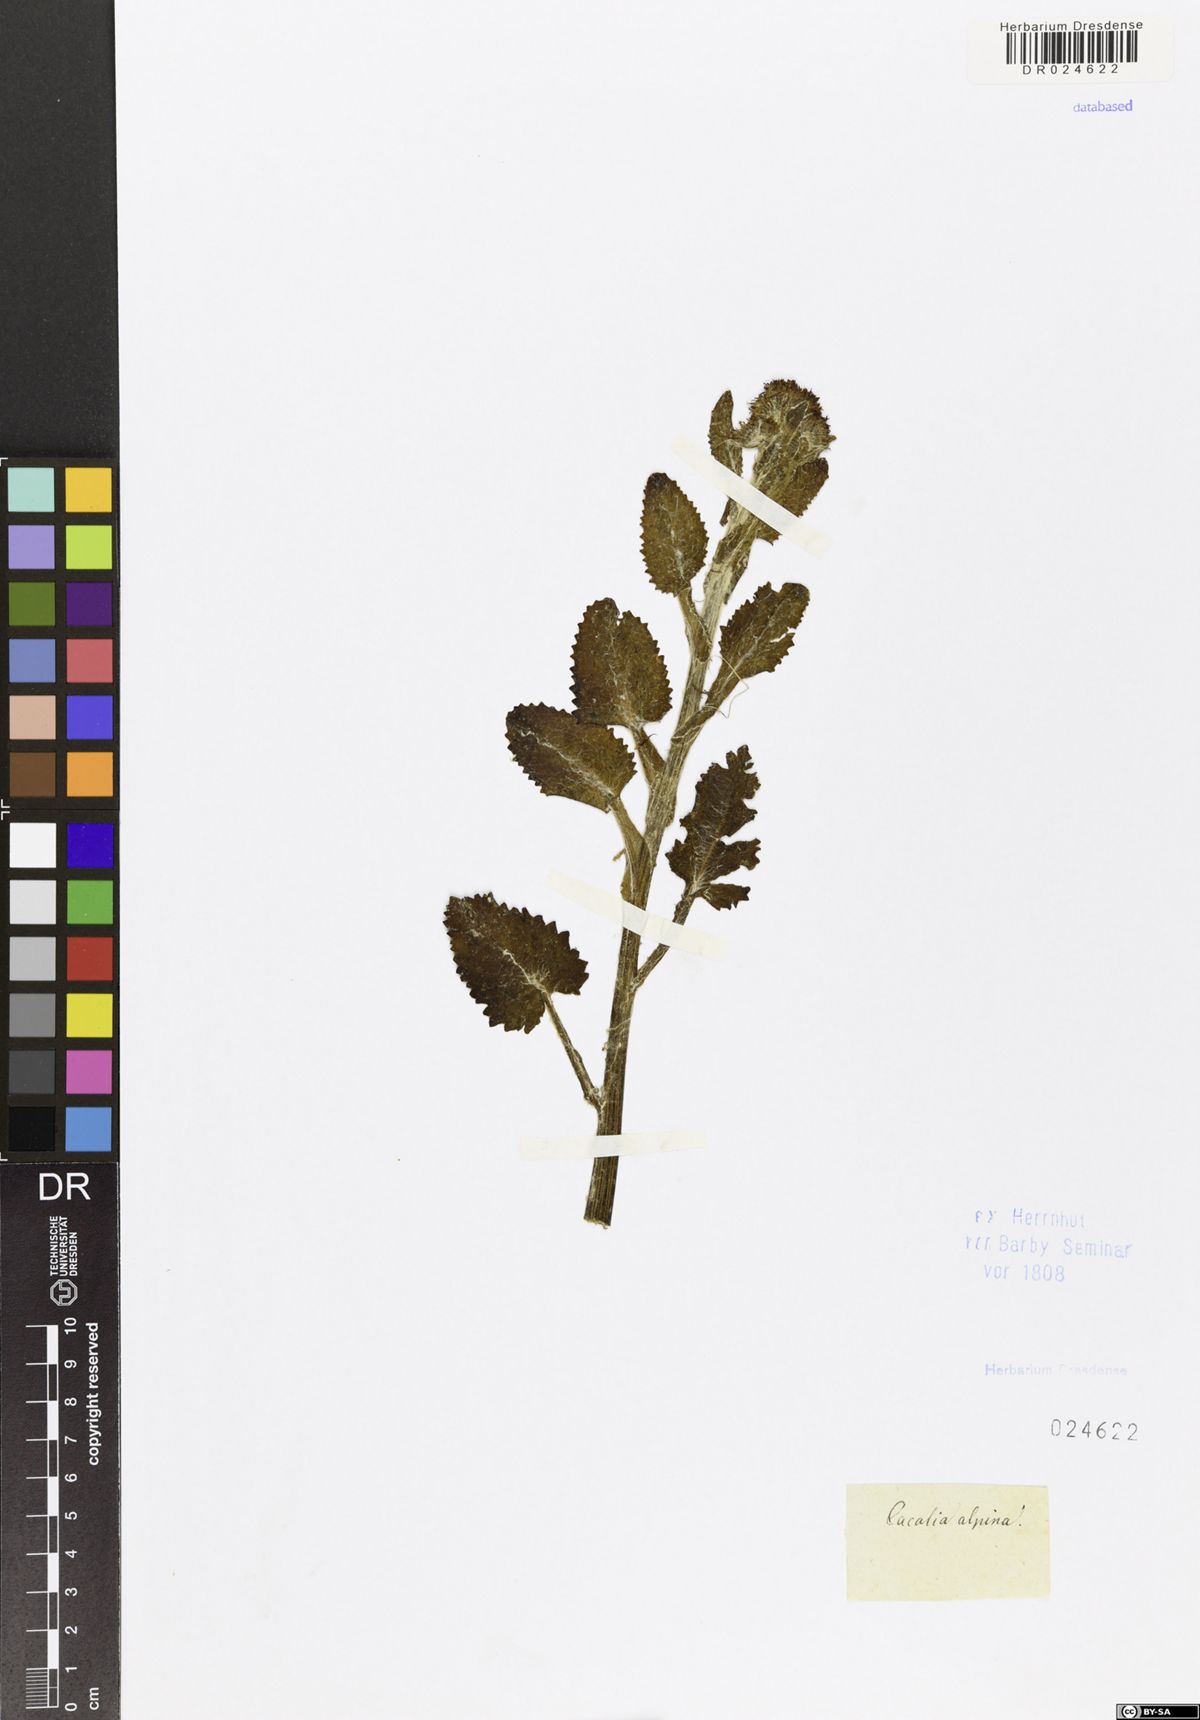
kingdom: Plantae
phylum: Tracheophyta
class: Magnoliopsida
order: Asterales
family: Asteraceae
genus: Jacobaea
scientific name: Jacobaea alpina
